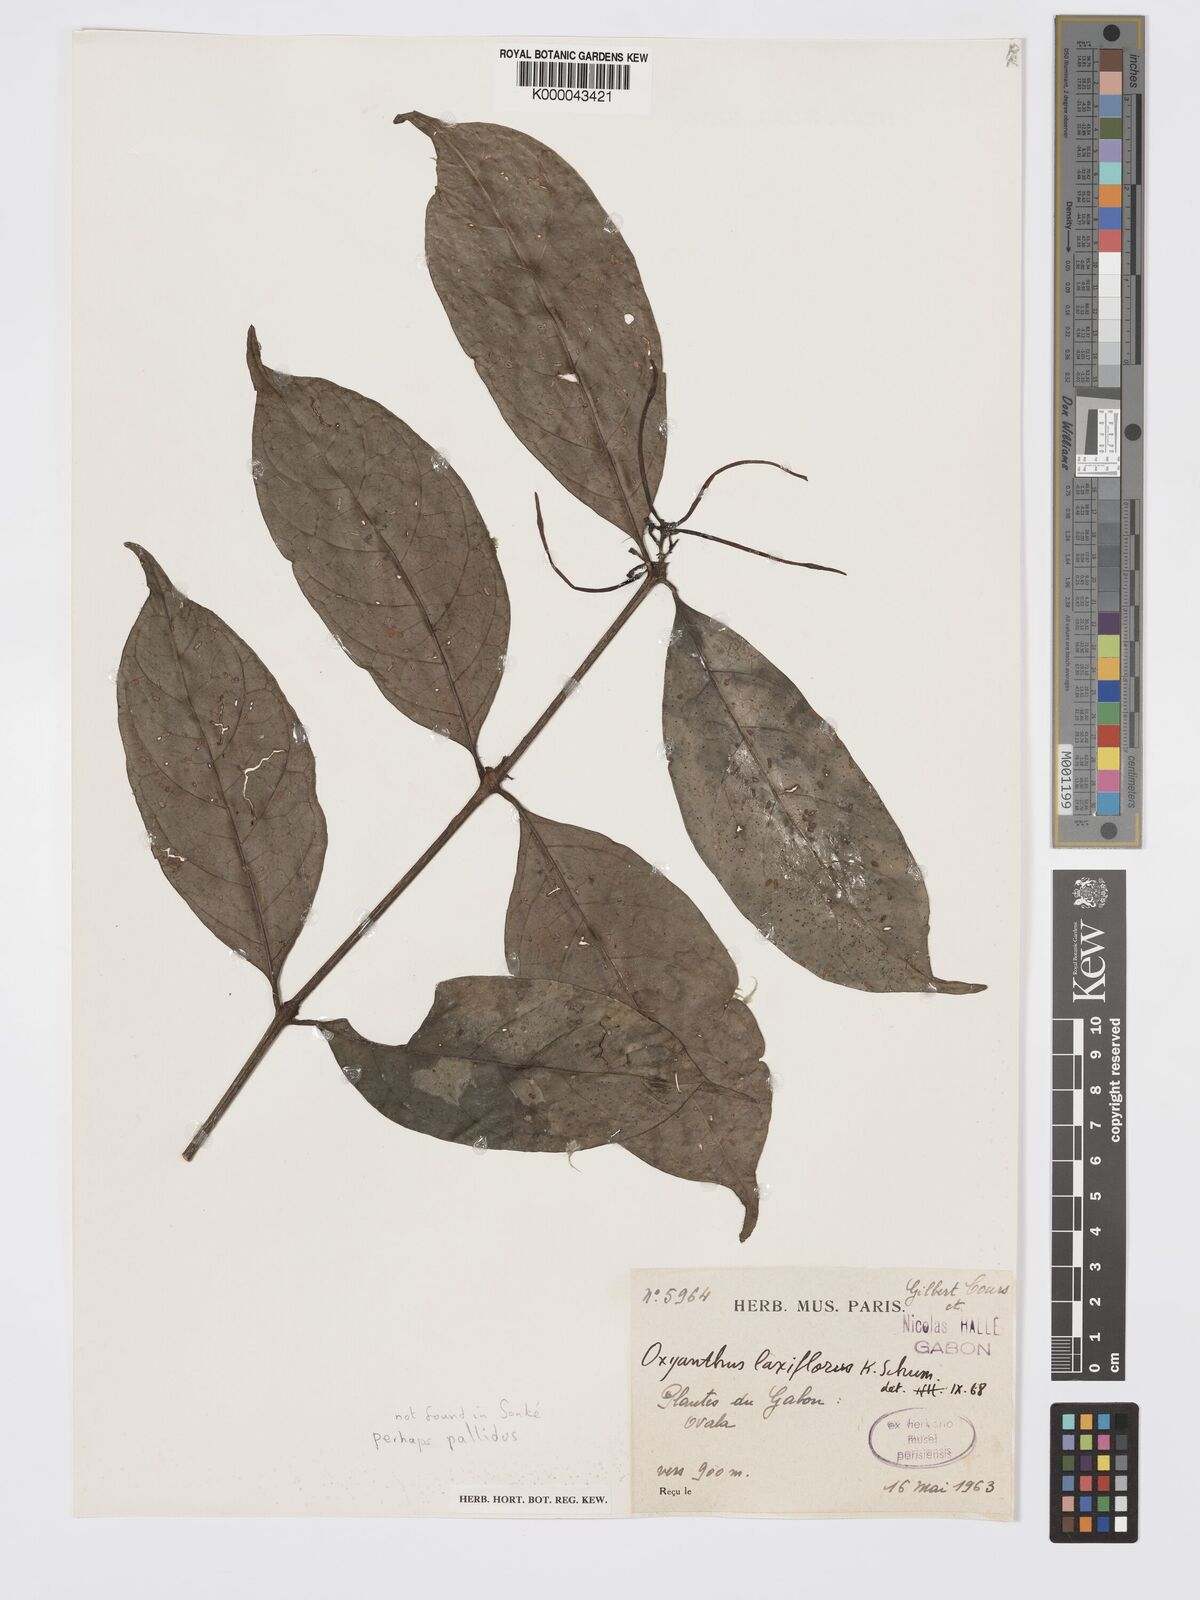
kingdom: Plantae
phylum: Tracheophyta
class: Magnoliopsida
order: Gentianales
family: Rubiaceae
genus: Oxyanthus
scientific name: Oxyanthus pallidus
